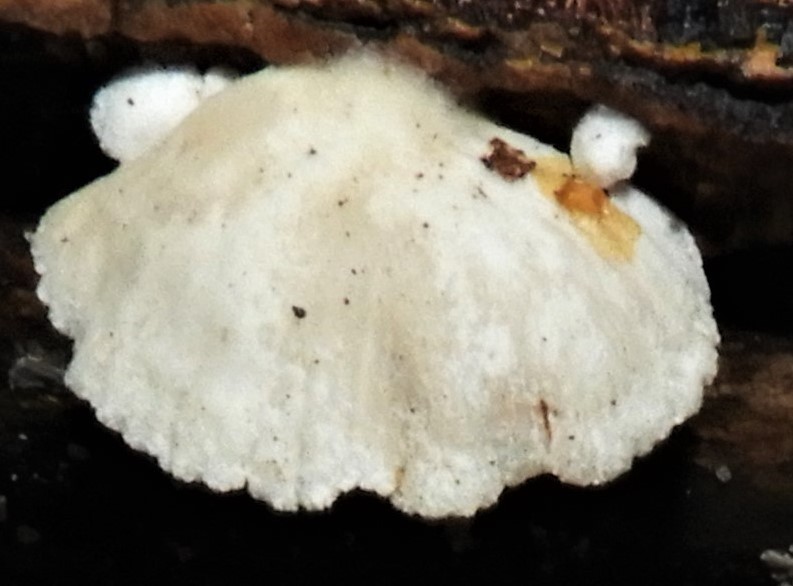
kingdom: Fungi
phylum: Basidiomycota
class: Agaricomycetes
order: Agaricales
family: Crepidotaceae
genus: Crepidotus
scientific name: Crepidotus
